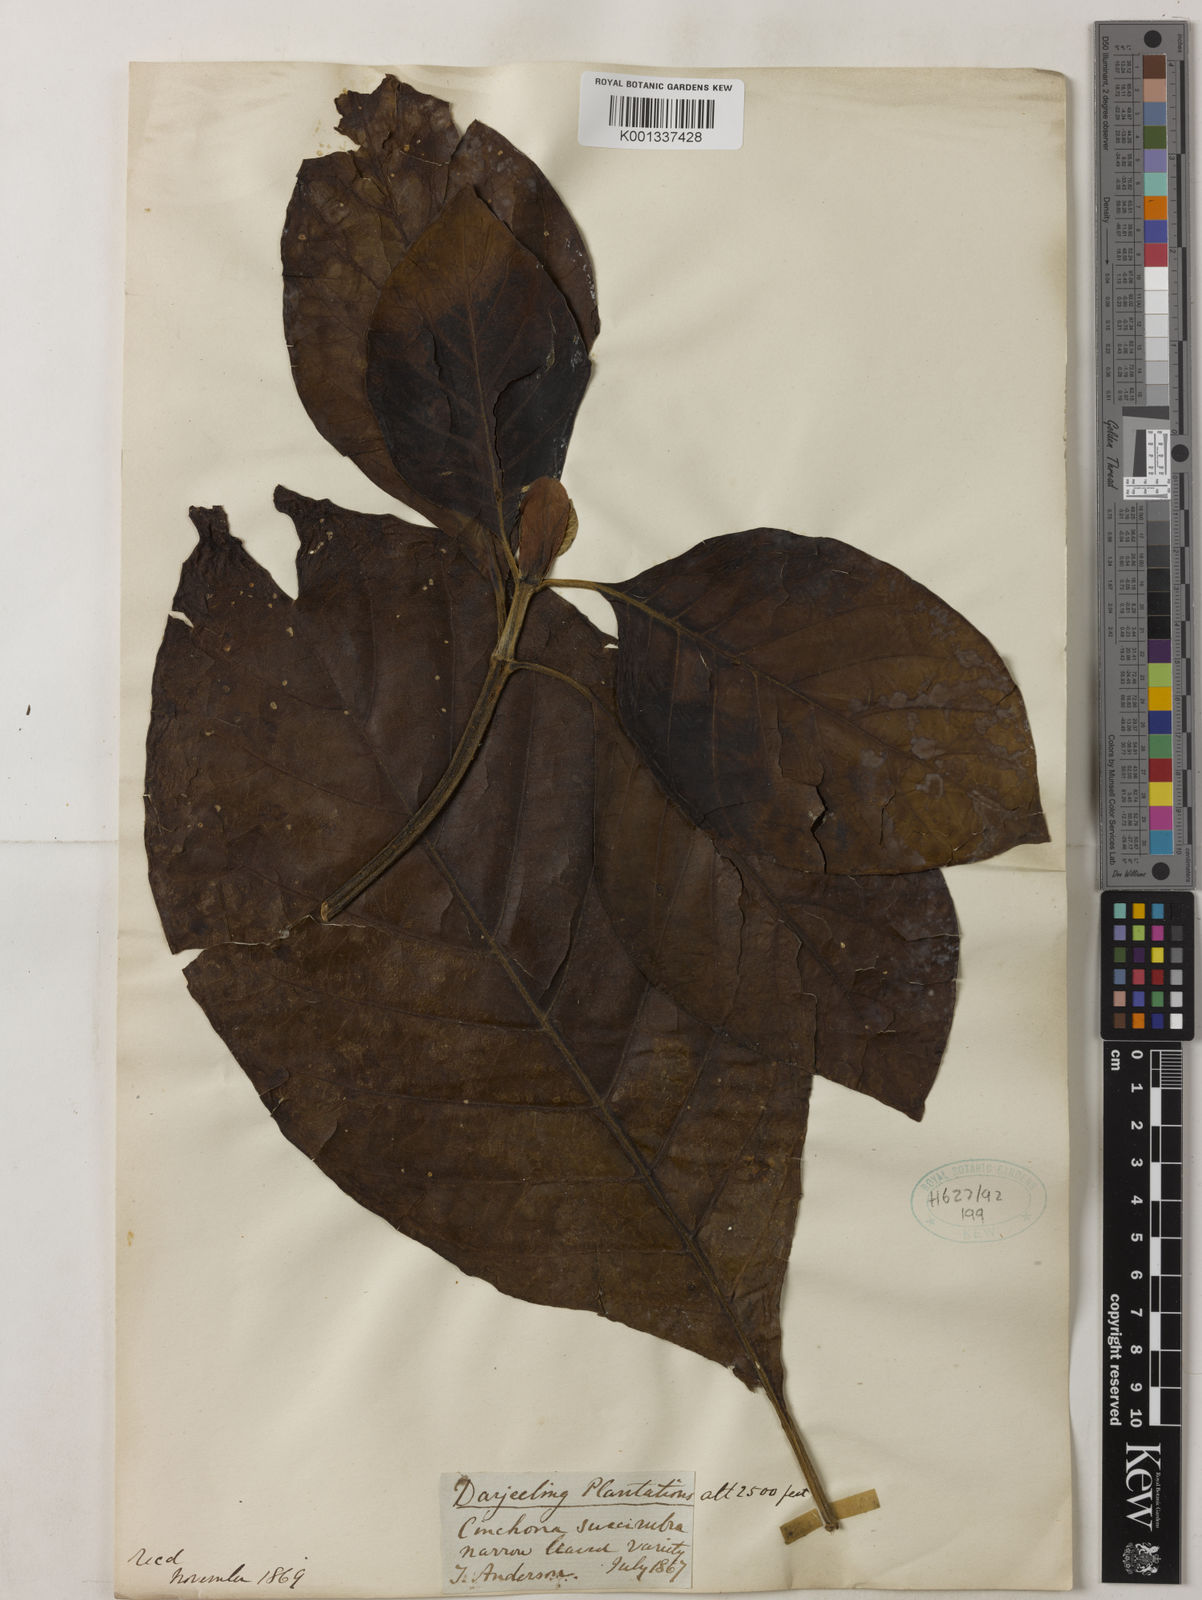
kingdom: Plantae
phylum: Tracheophyta
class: Magnoliopsida
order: Gentianales
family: Rubiaceae
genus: Cinchona
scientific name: Cinchona pubescens
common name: Quinine
